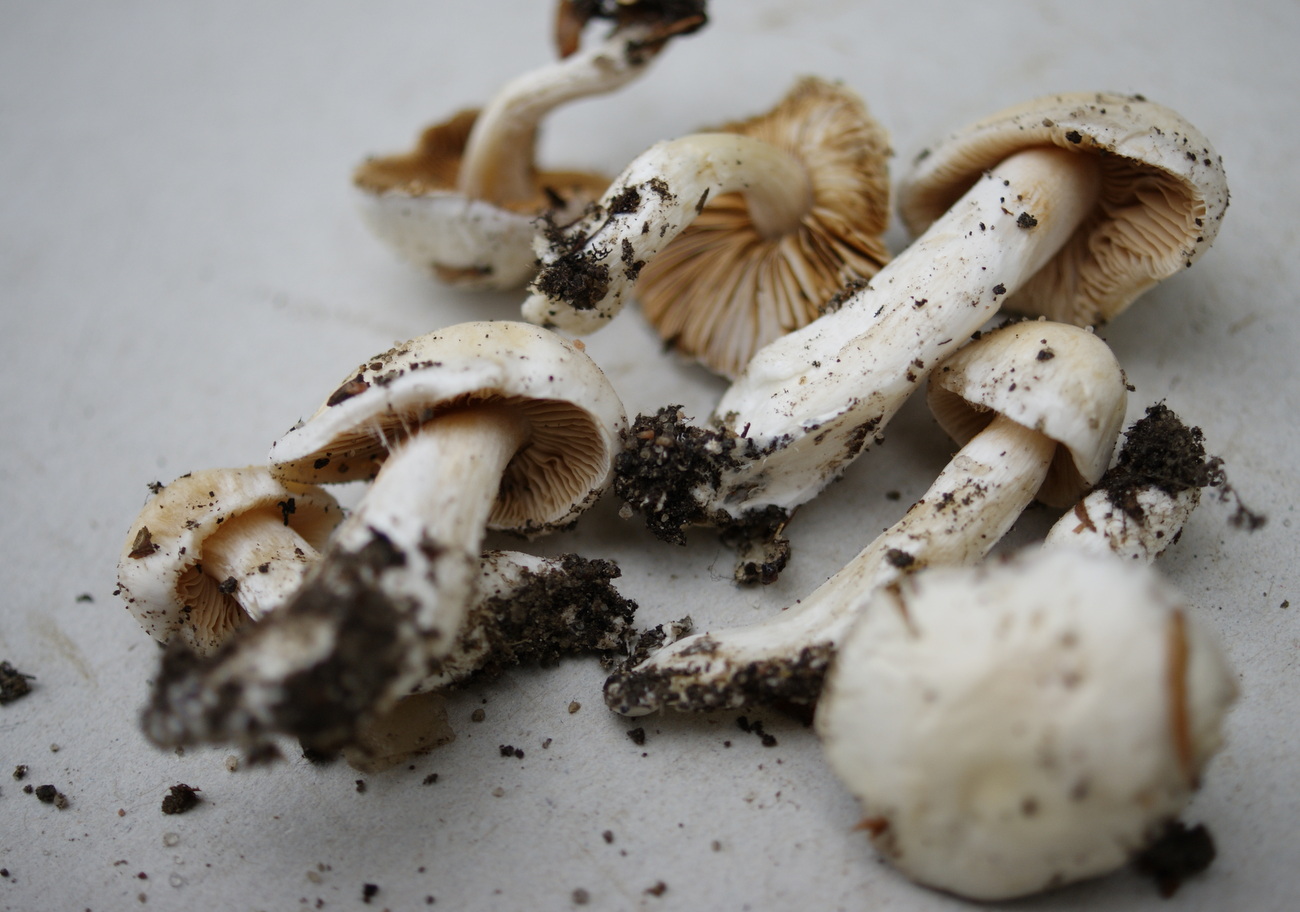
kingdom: Fungi
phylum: Basidiomycota
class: Agaricomycetes
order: Agaricales
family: Cortinariaceae
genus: Thaxterogaster
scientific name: Thaxterogaster barbatus
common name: elfenbens-slørhat
